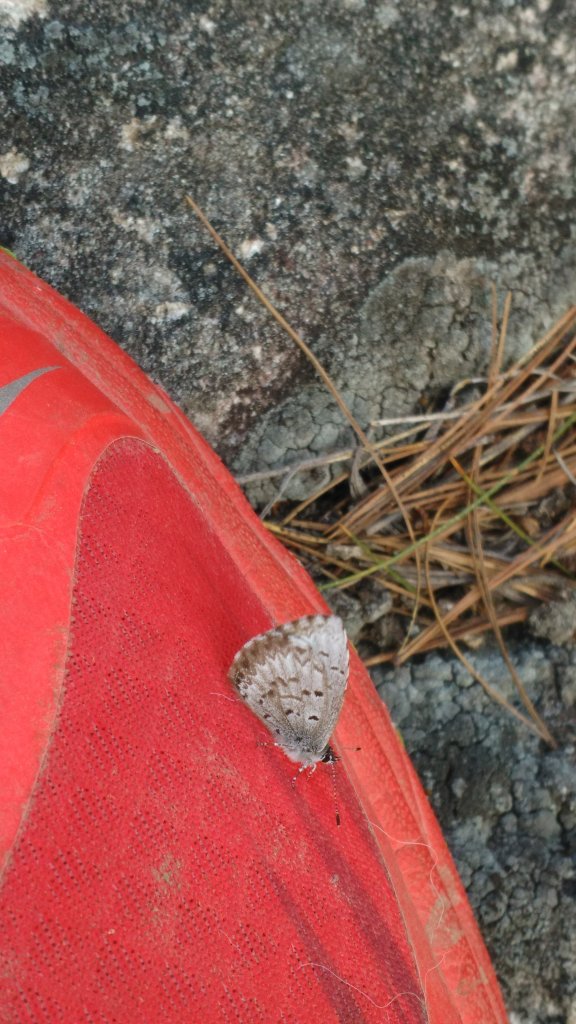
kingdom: Animalia
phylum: Arthropoda
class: Insecta
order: Lepidoptera
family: Lycaenidae
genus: Celastrina
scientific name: Celastrina lucia
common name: Northern Spring Azure
